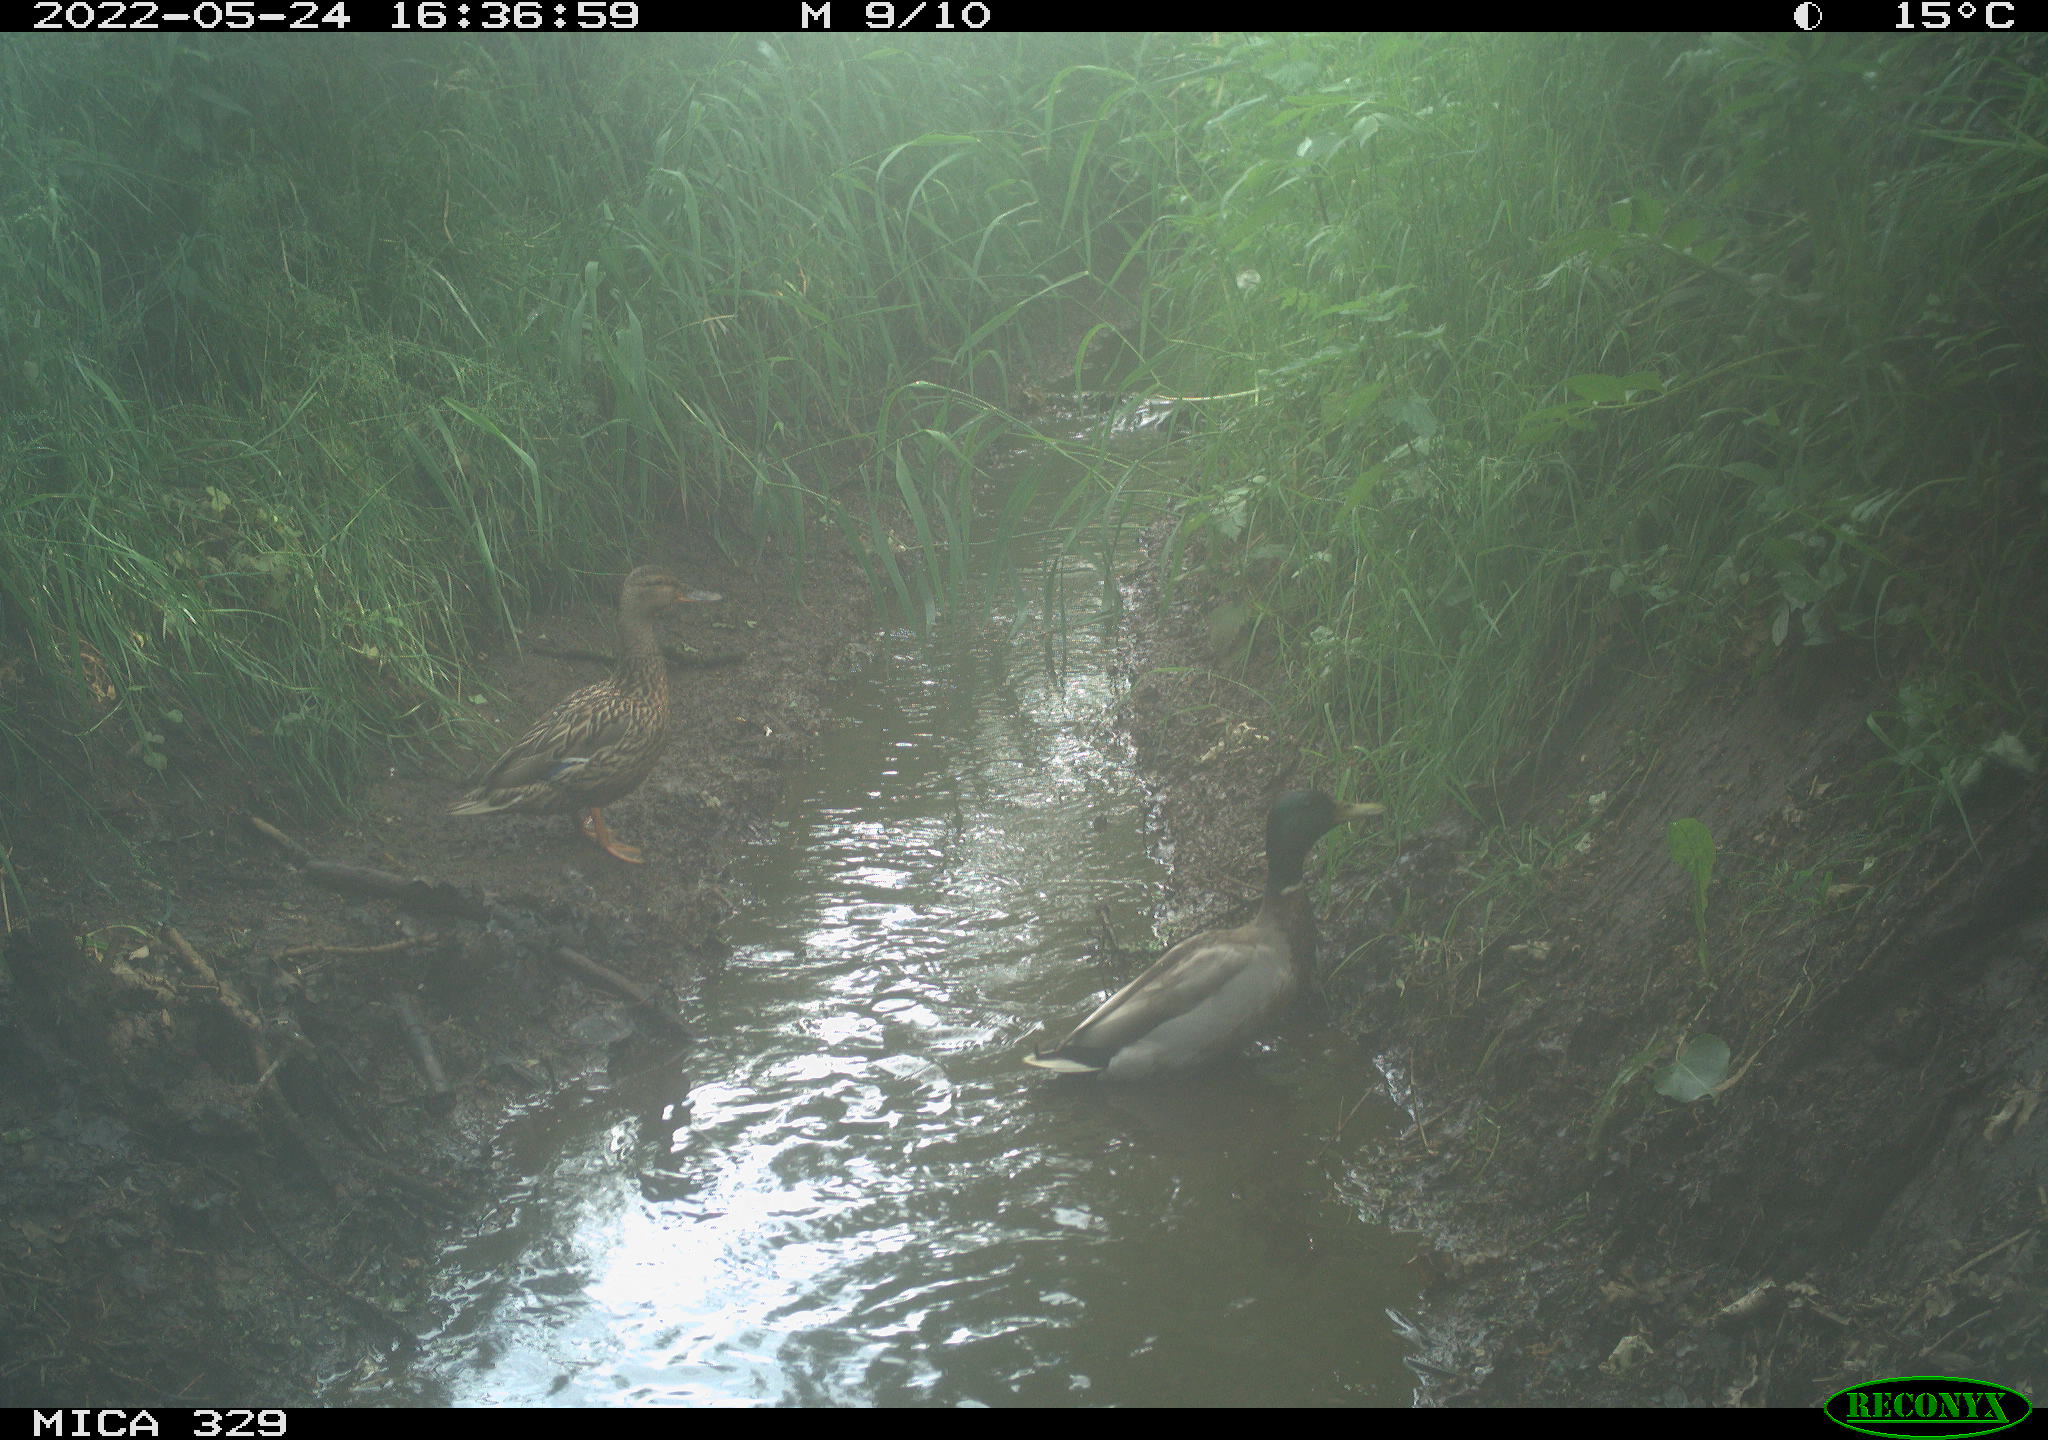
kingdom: Animalia
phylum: Chordata
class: Aves
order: Anseriformes
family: Anatidae
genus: Anas
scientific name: Anas platyrhynchos
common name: Mallard
